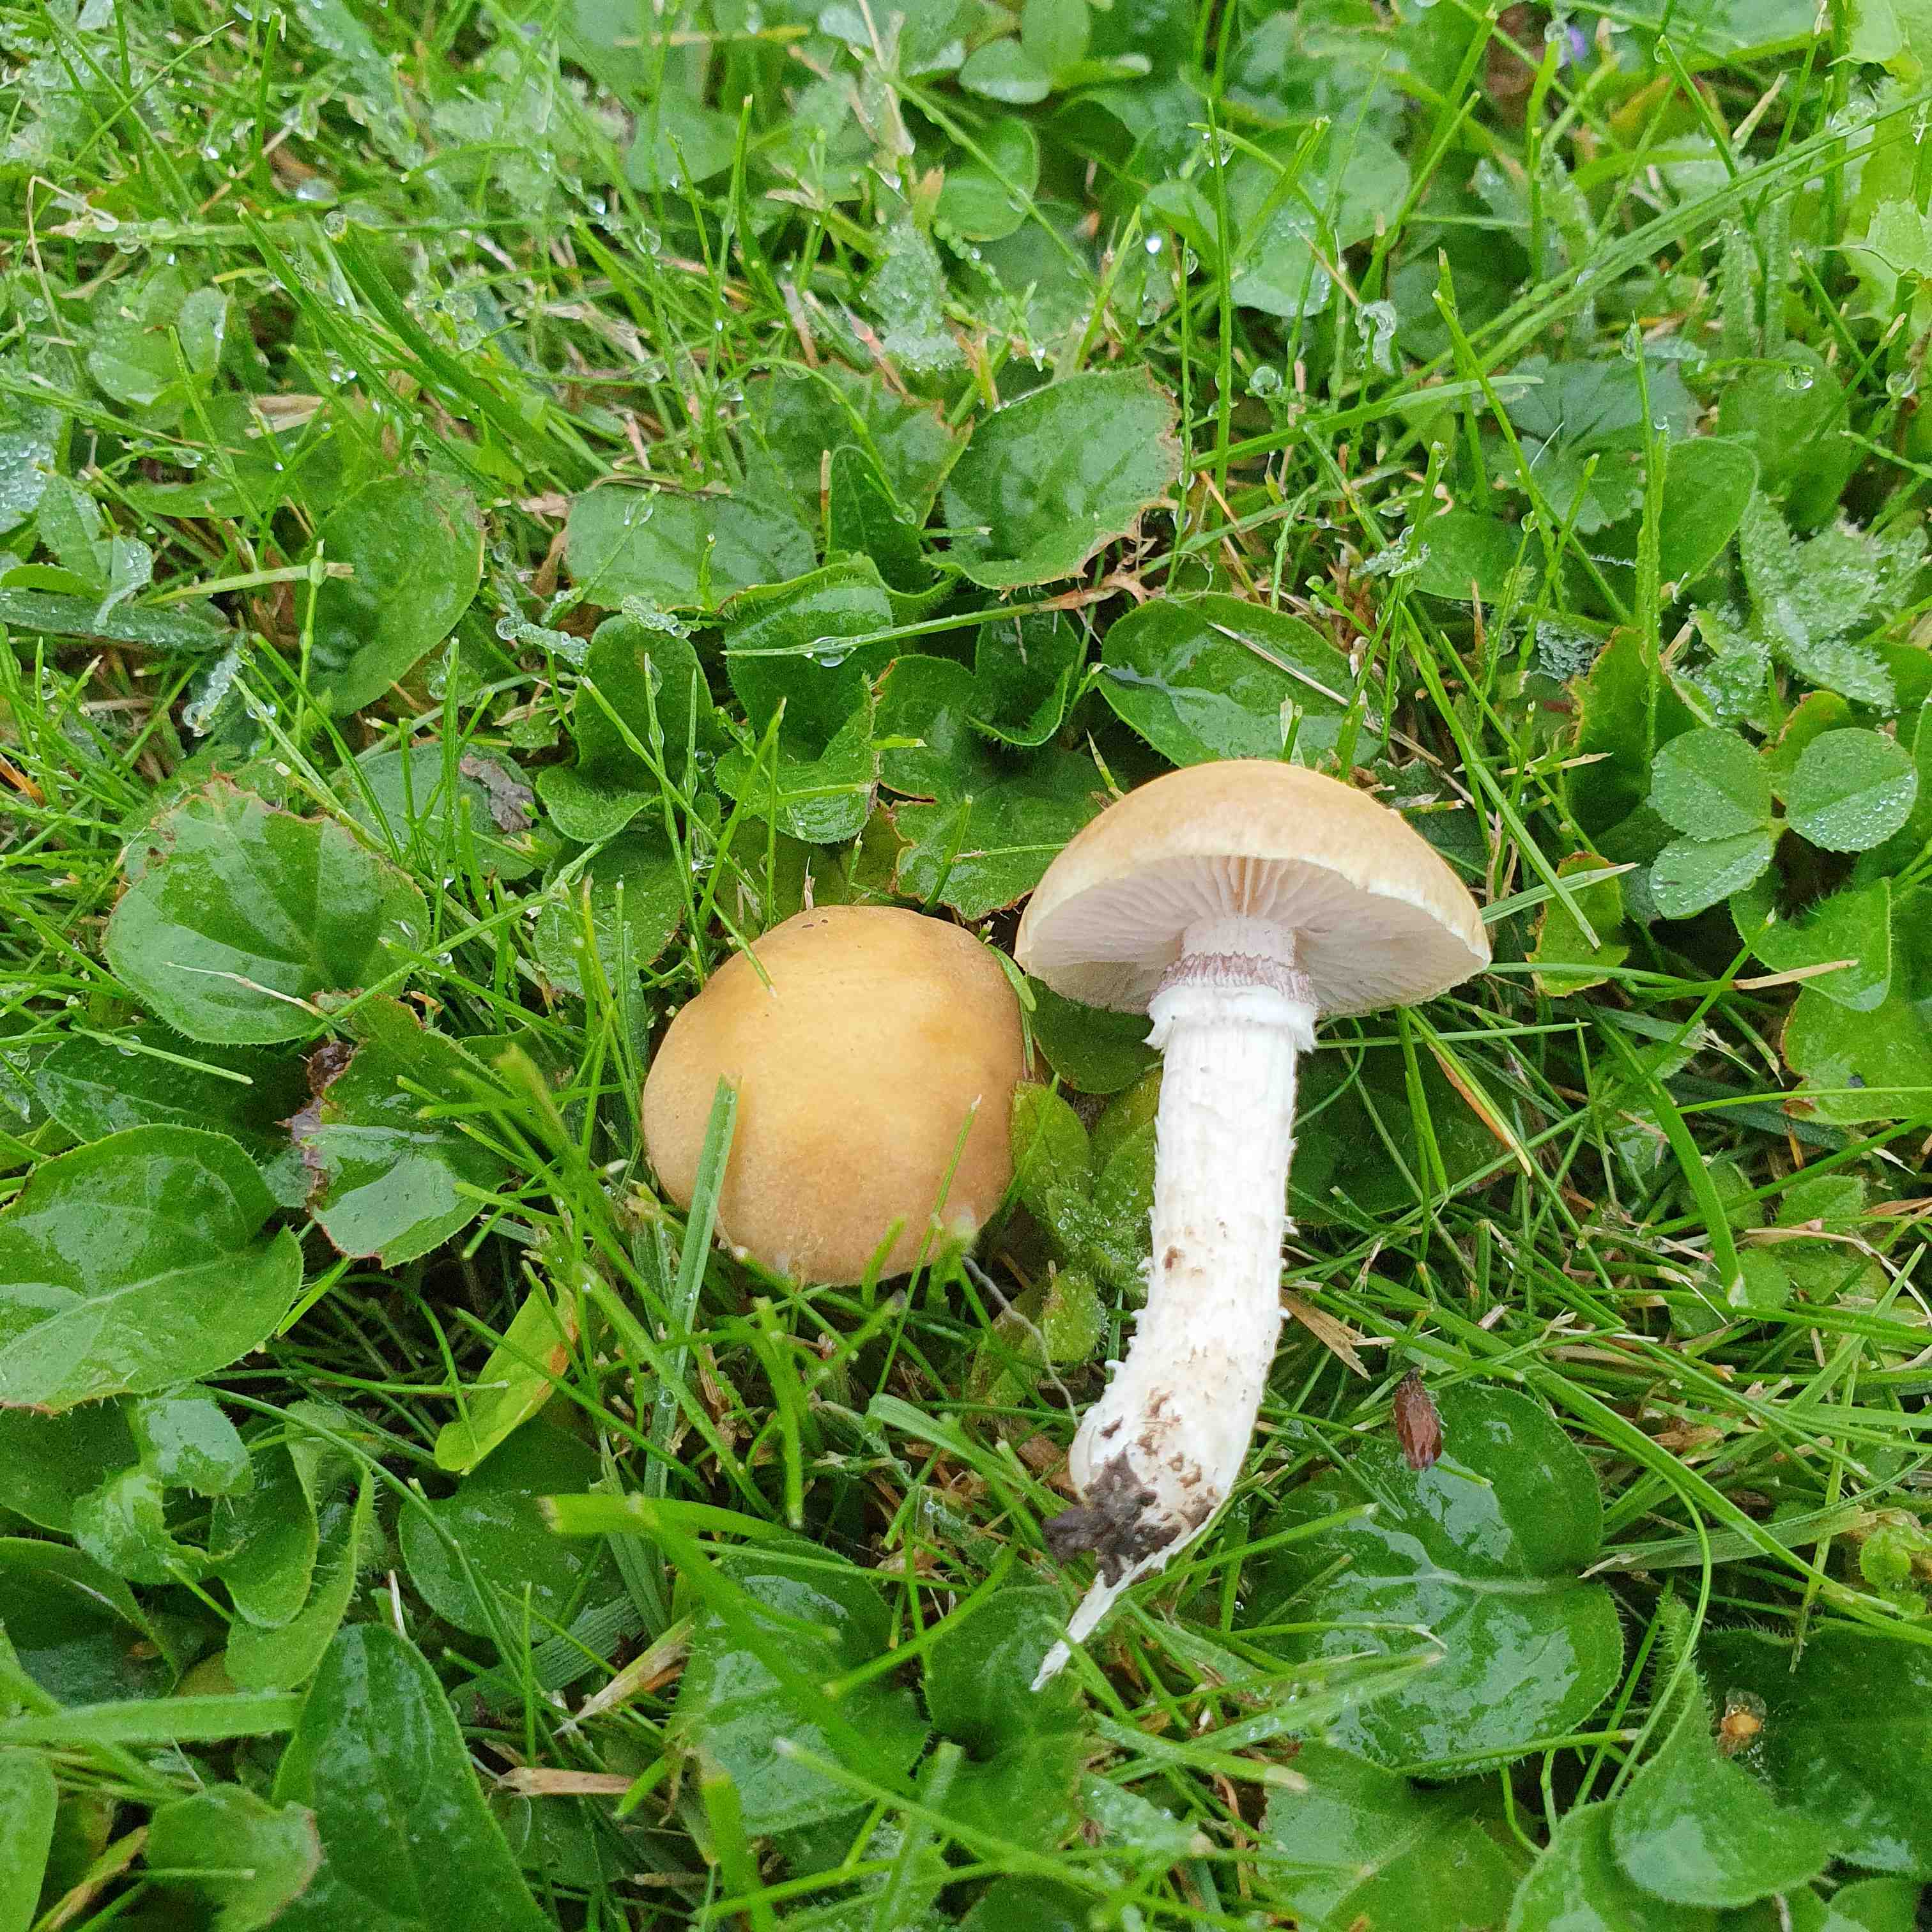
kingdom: Fungi
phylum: Basidiomycota
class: Agaricomycetes
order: Agaricales
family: Hymenogastraceae
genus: Psilocybe
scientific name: Psilocybe coronilla
